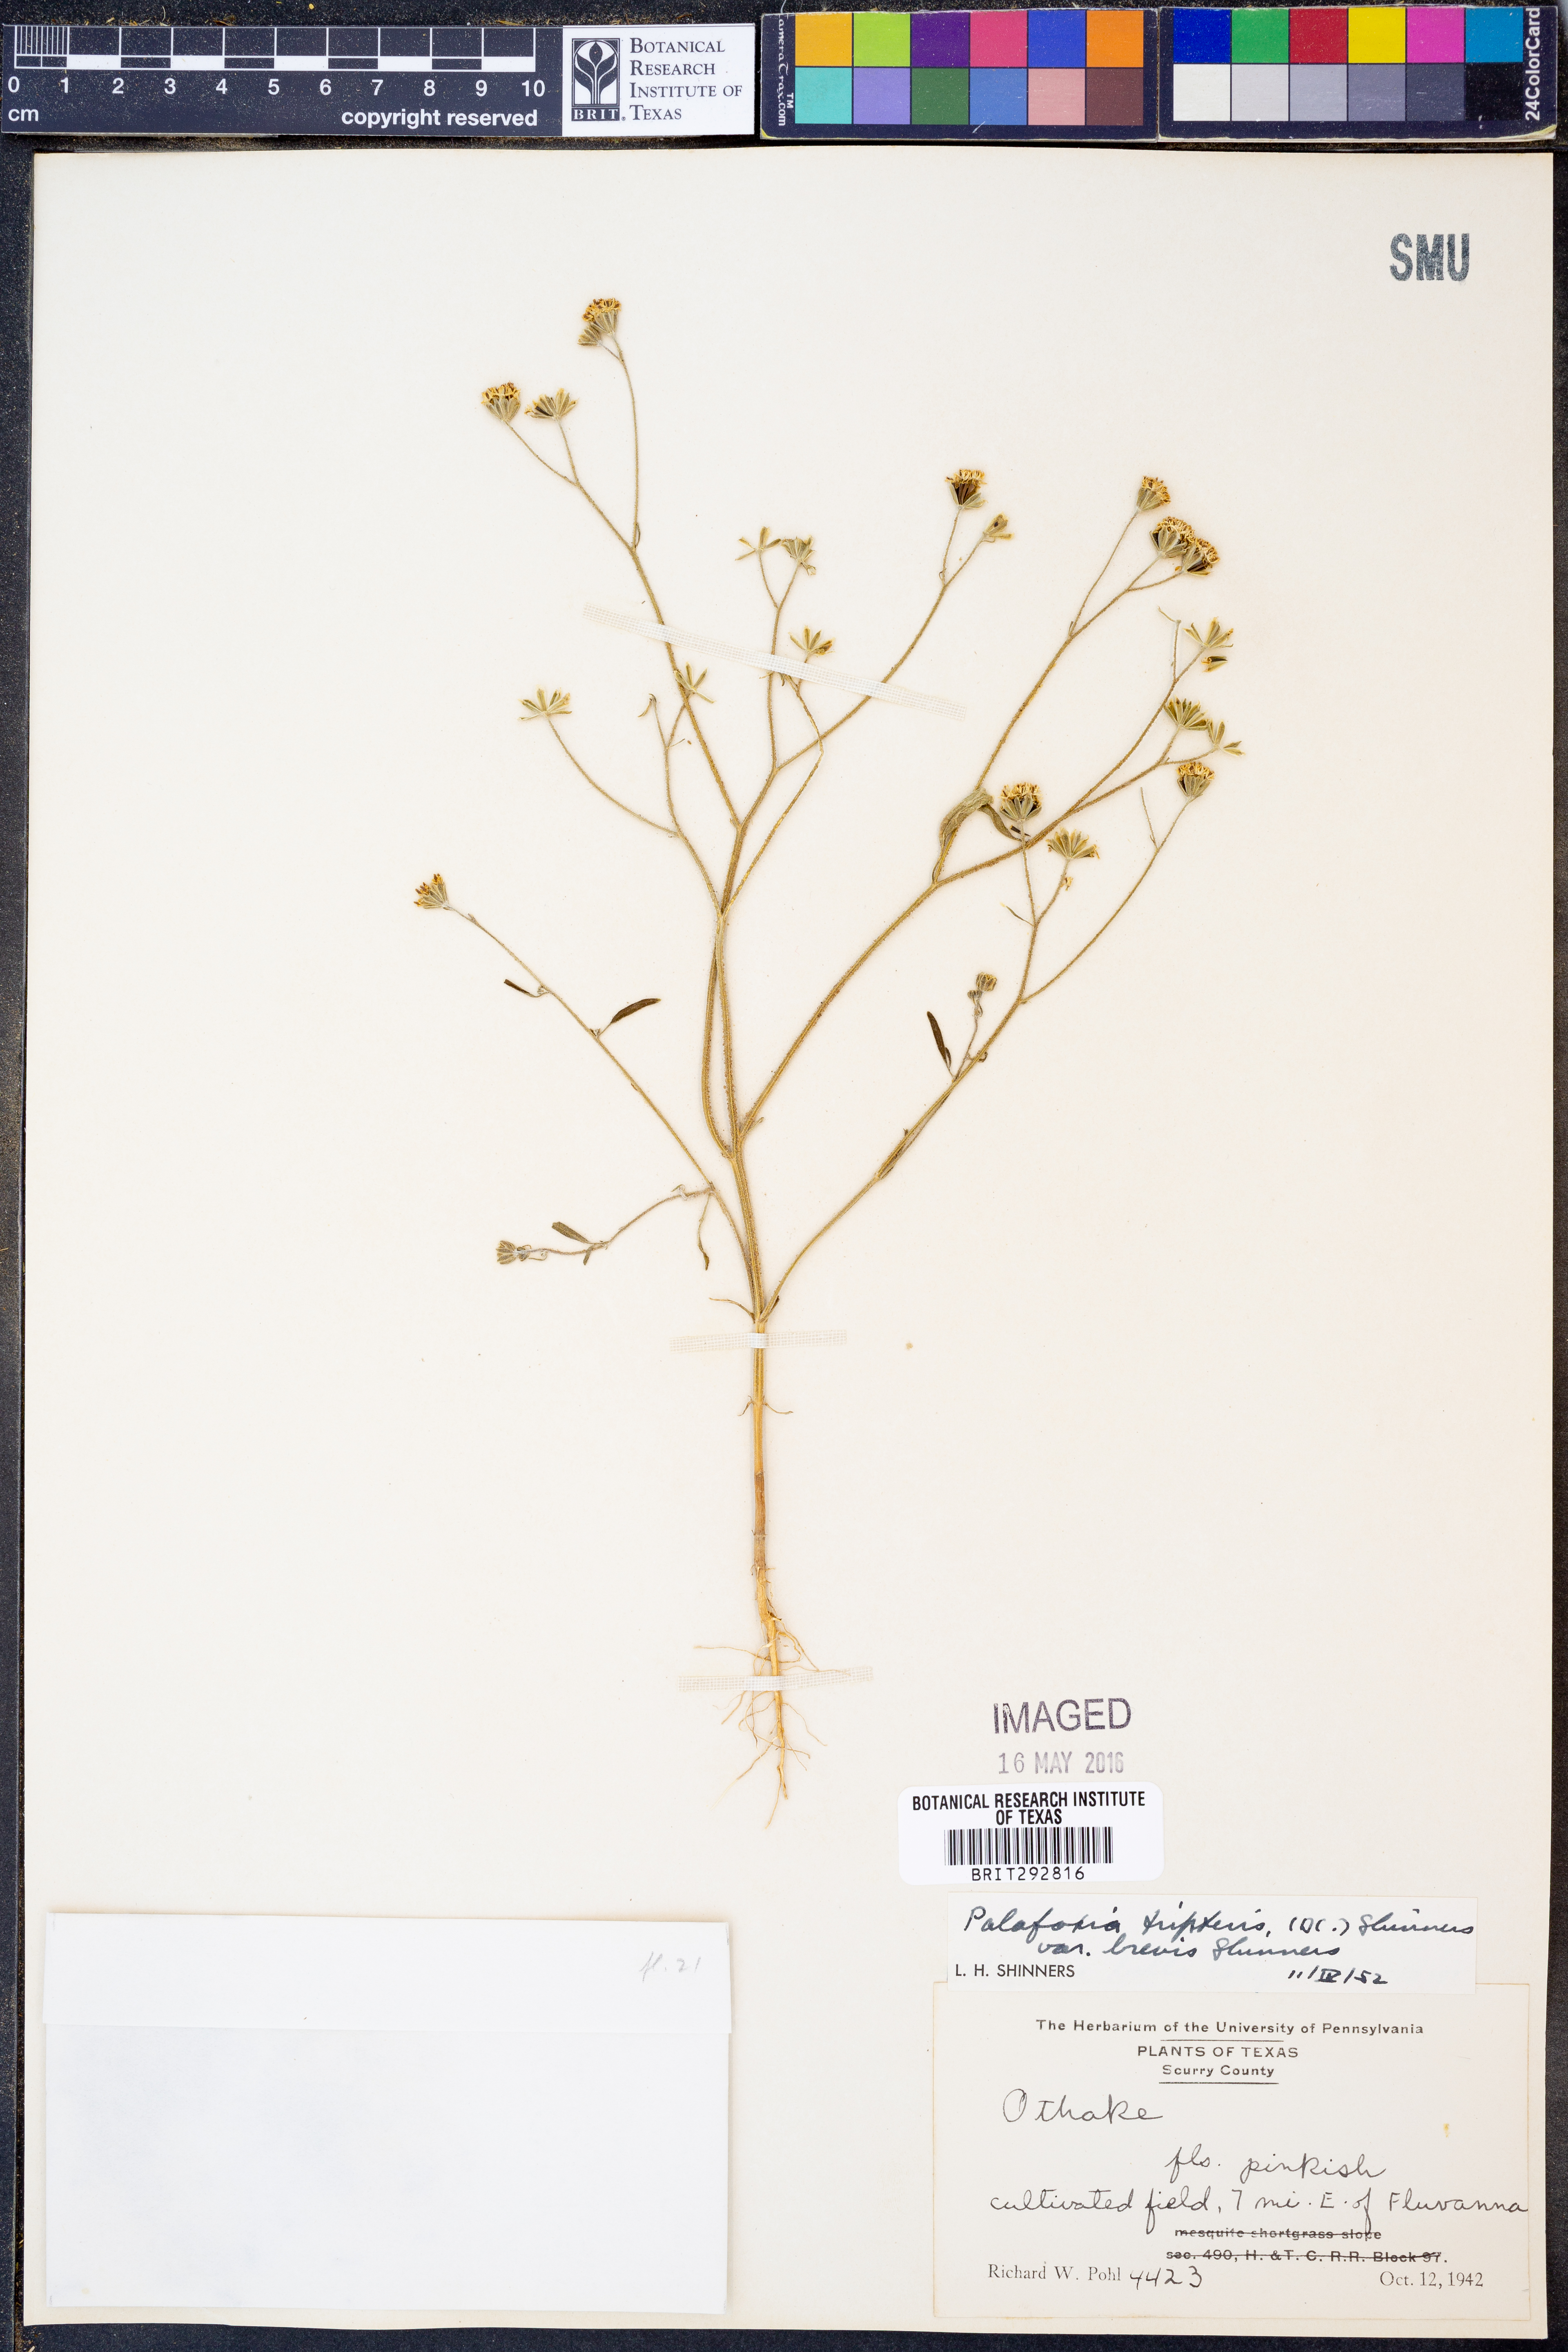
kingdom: Plantae
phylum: Tracheophyta
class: Magnoliopsida
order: Asterales
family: Asteraceae
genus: Florestina
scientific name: Florestina tripteris
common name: Sticky florestina
